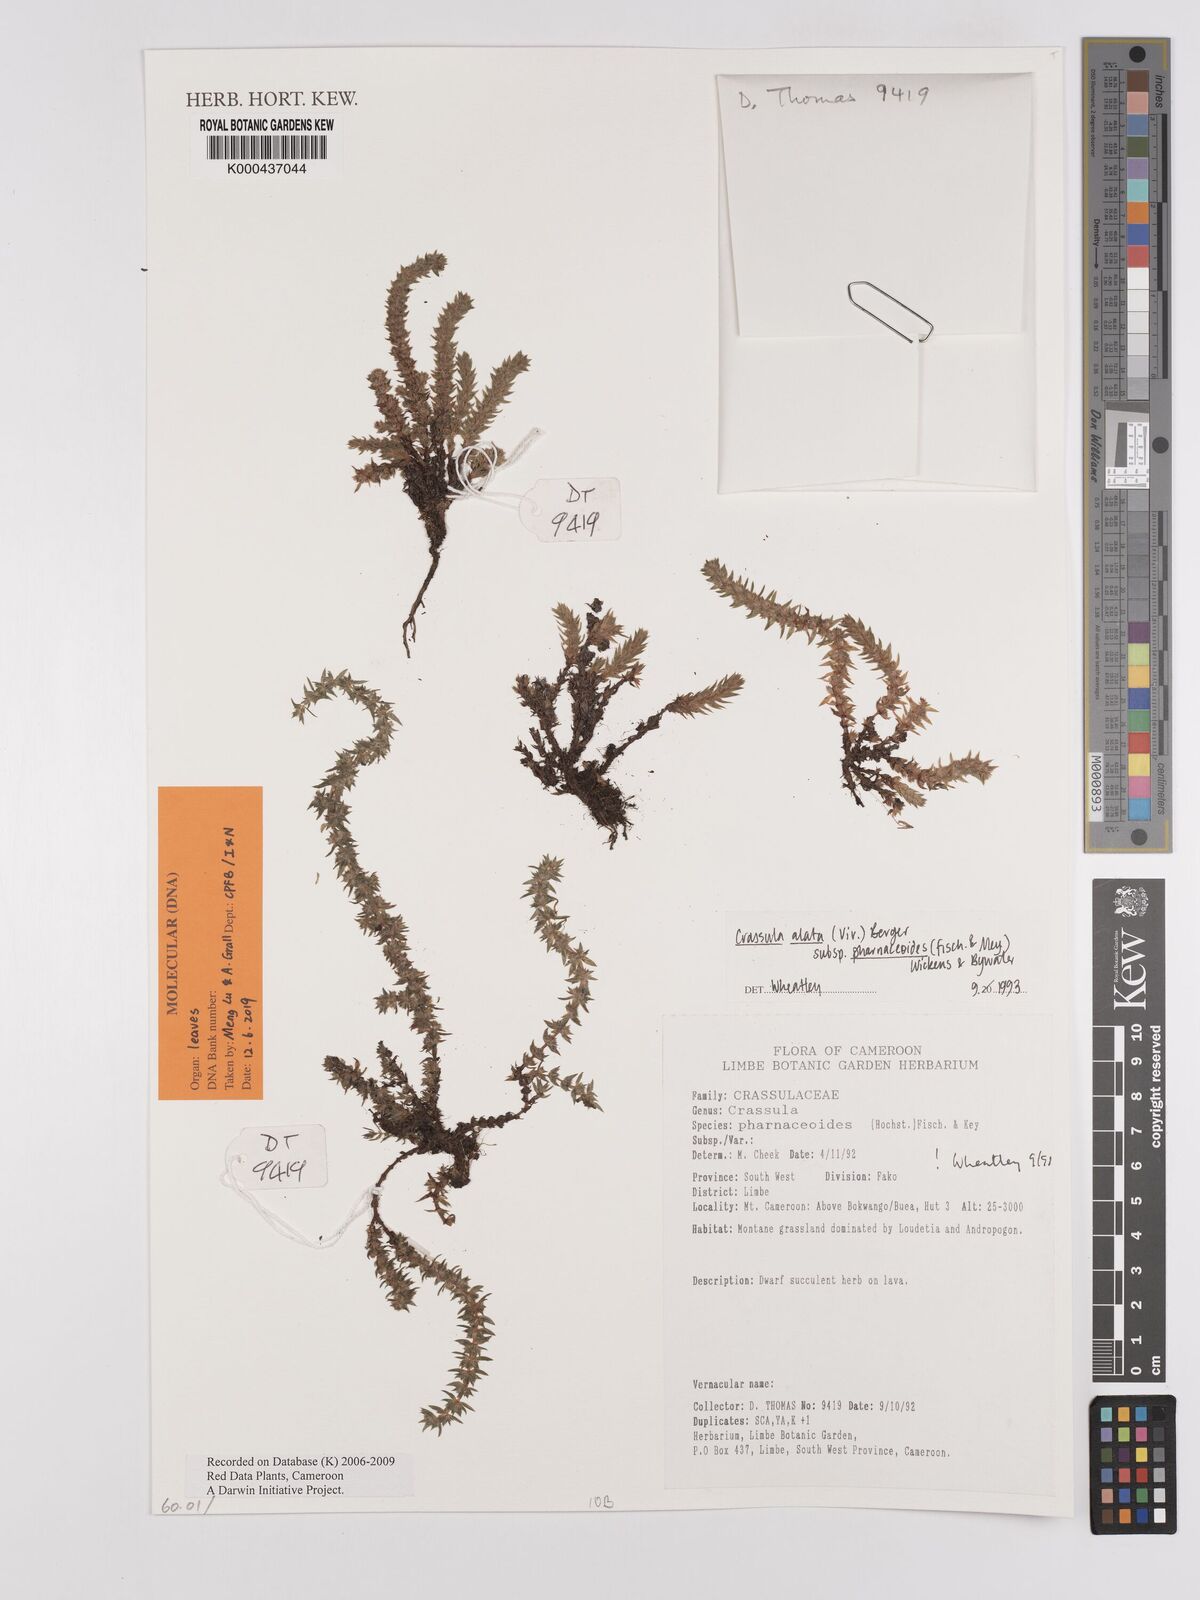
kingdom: Plantae
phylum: Tracheophyta
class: Magnoliopsida
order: Saxifragales
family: Crassulaceae
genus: Crassula
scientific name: Crassula alata
